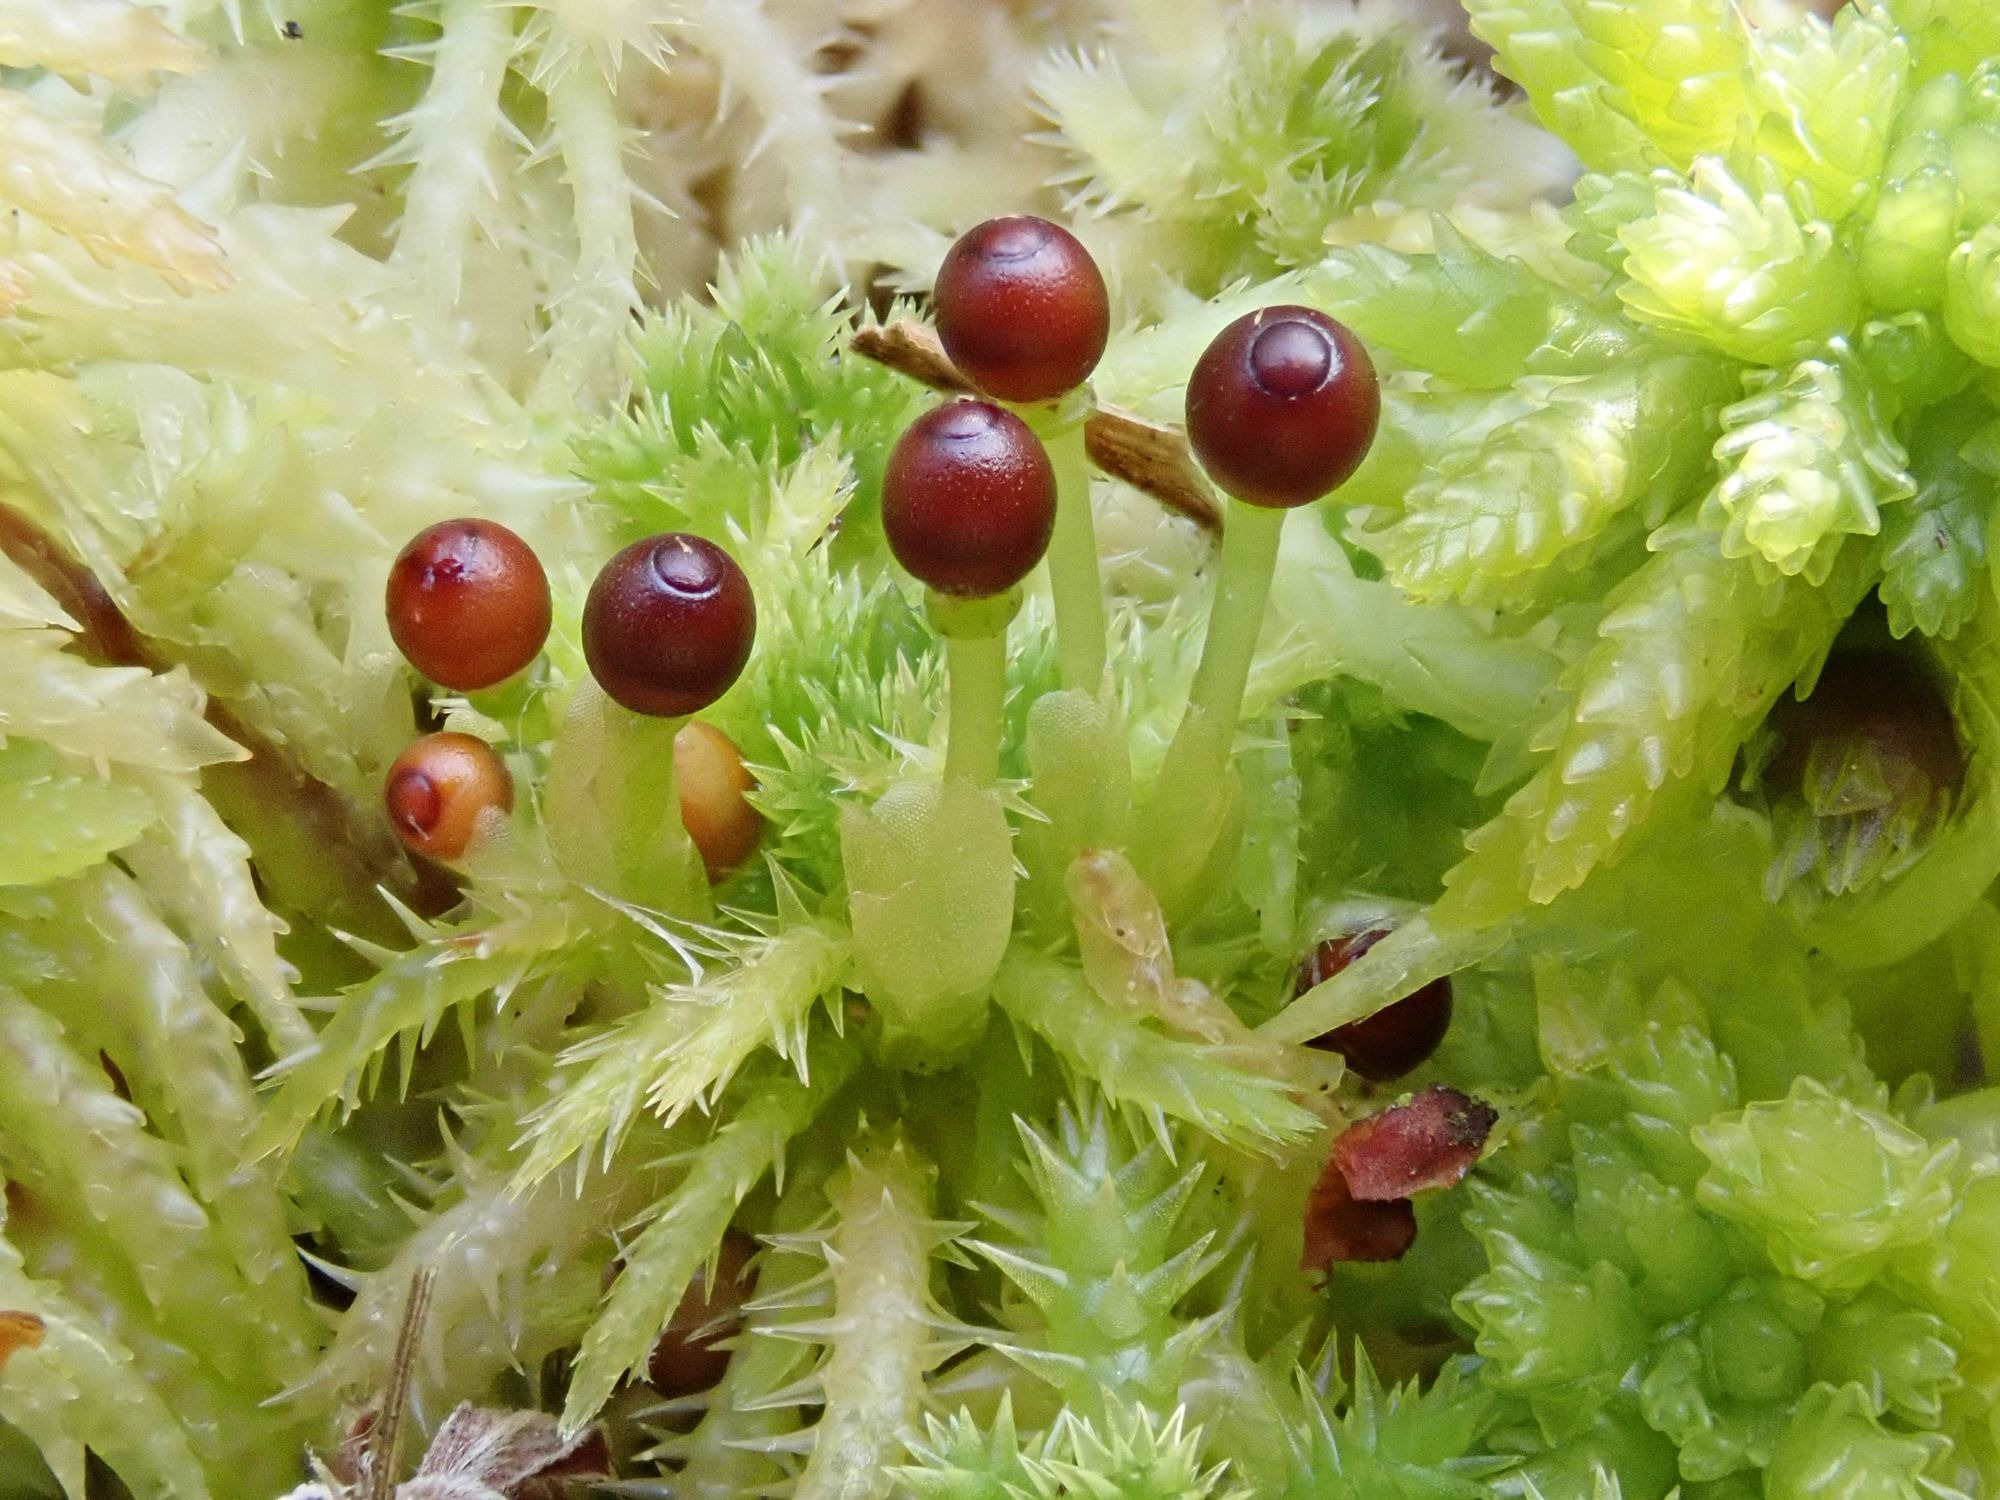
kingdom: Plantae
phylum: Bryophyta
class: Sphagnopsida
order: Sphagnales
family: Sphagnaceae
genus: Sphagnum
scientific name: Sphagnum squarrosum
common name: Udspærret tørvemos
